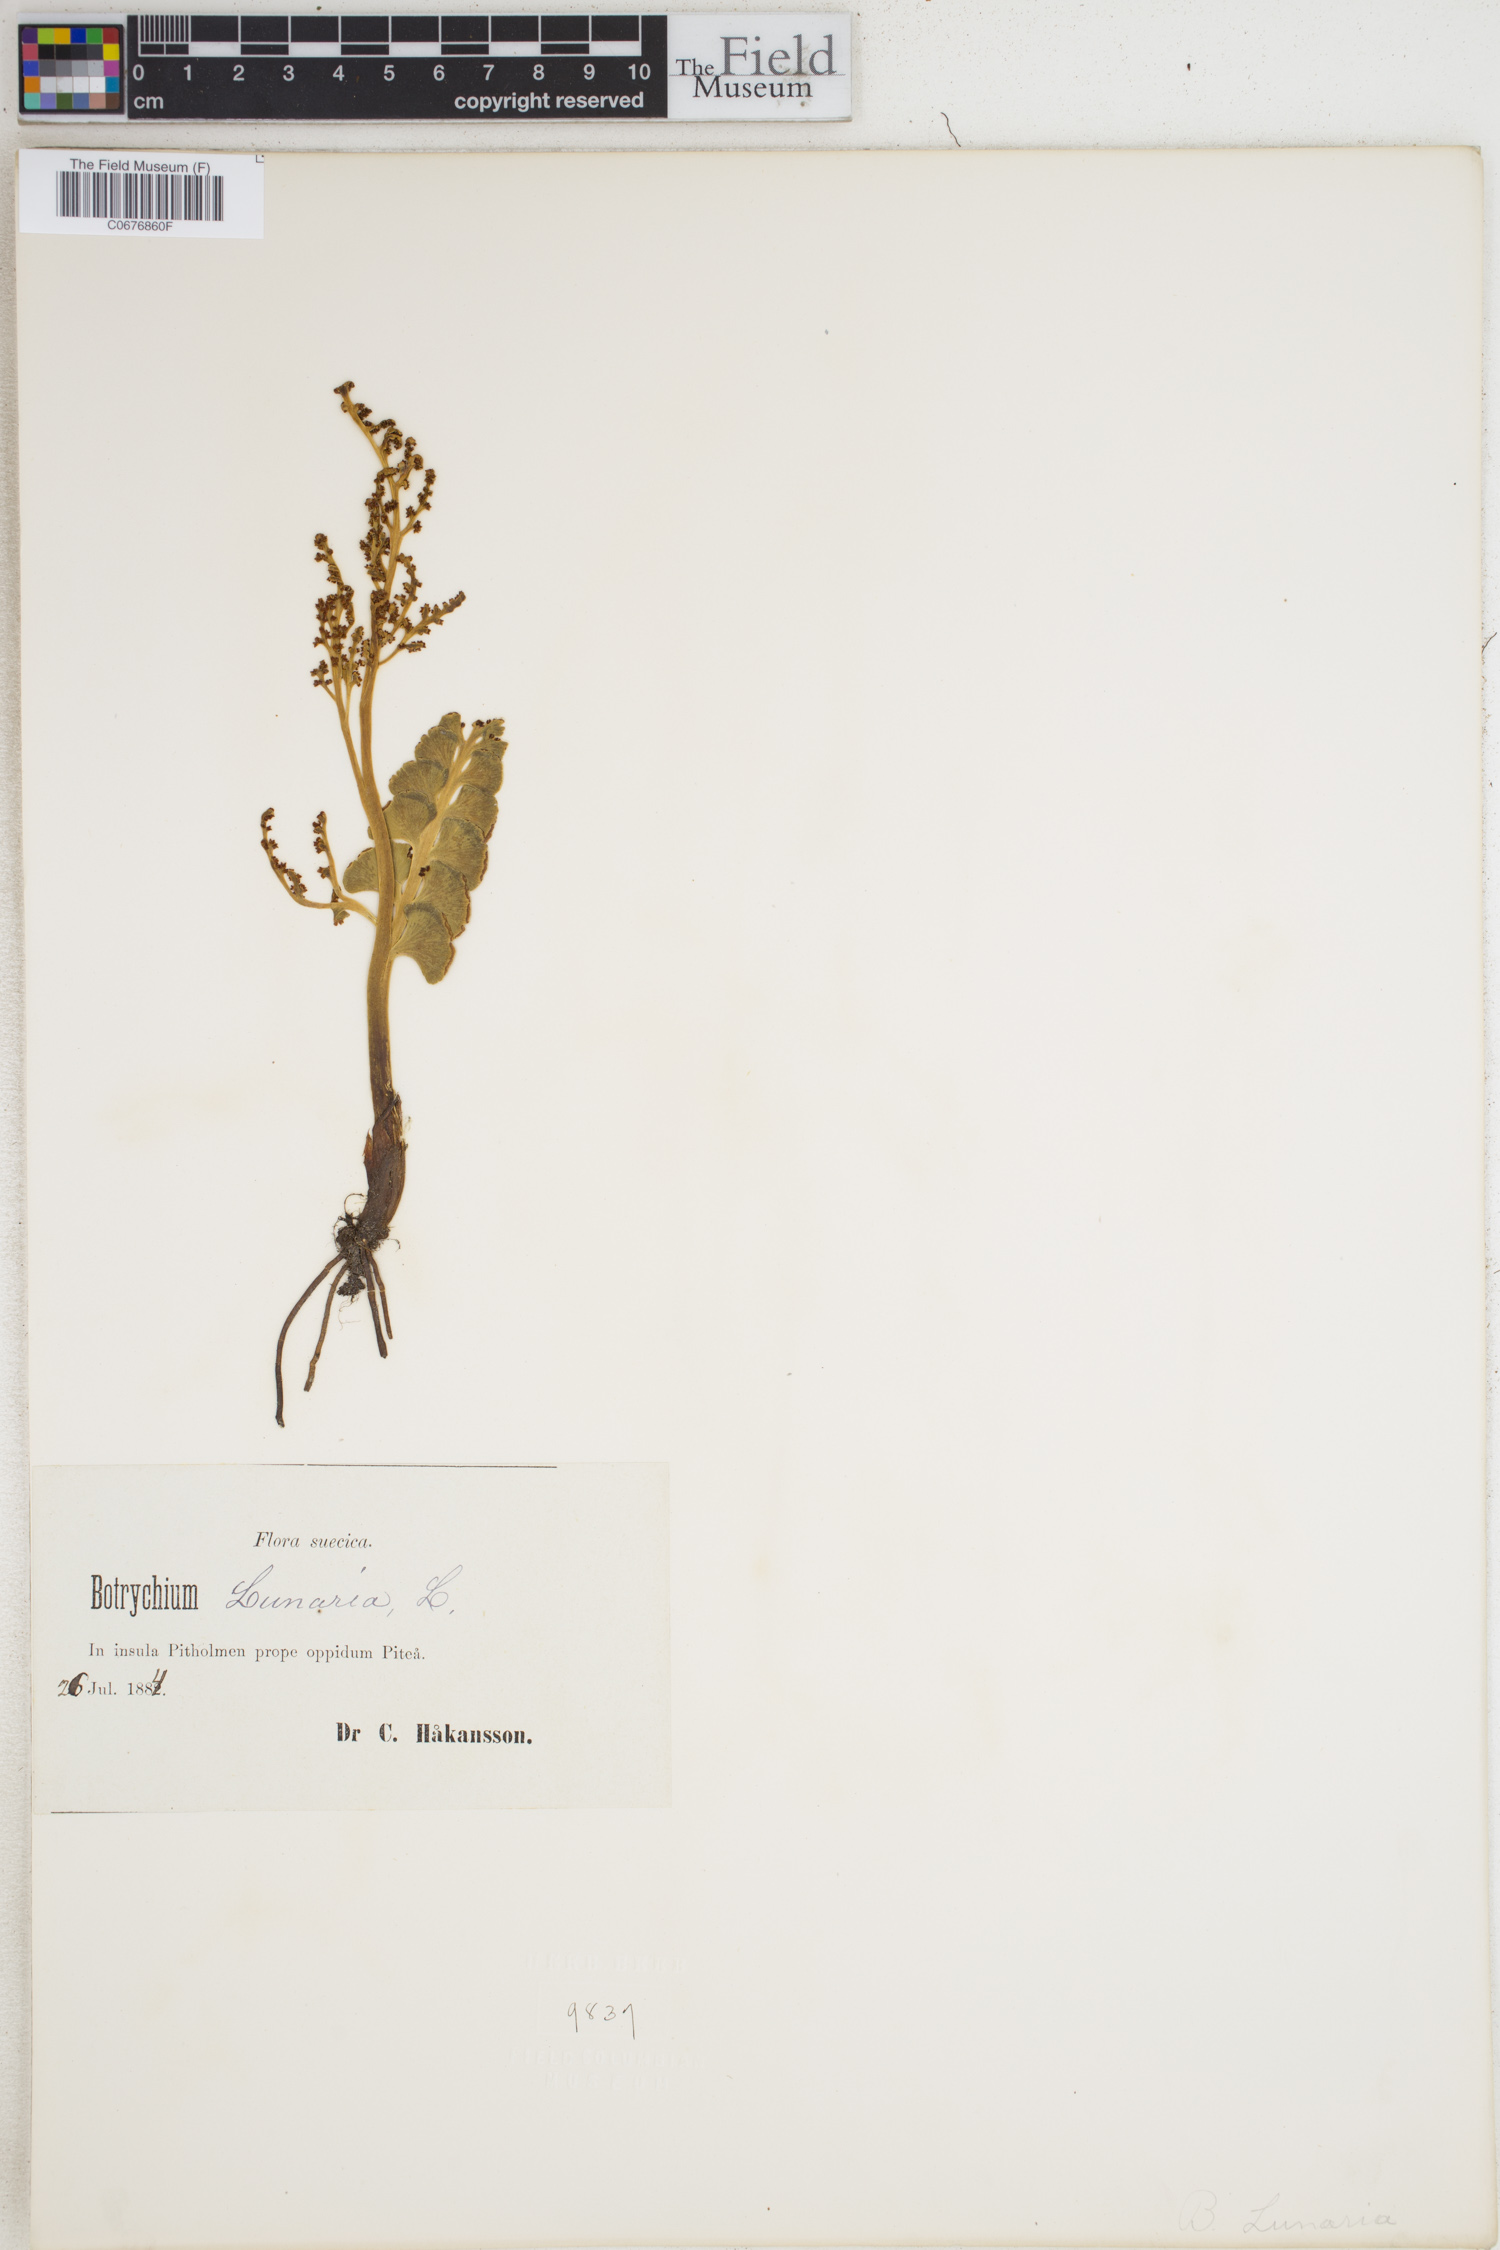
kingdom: Plantae
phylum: Tracheophyta
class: Polypodiopsida
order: Ophioglossales
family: Ophioglossaceae
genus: Botrychium
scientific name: Botrychium lunaria
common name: Moonwort
